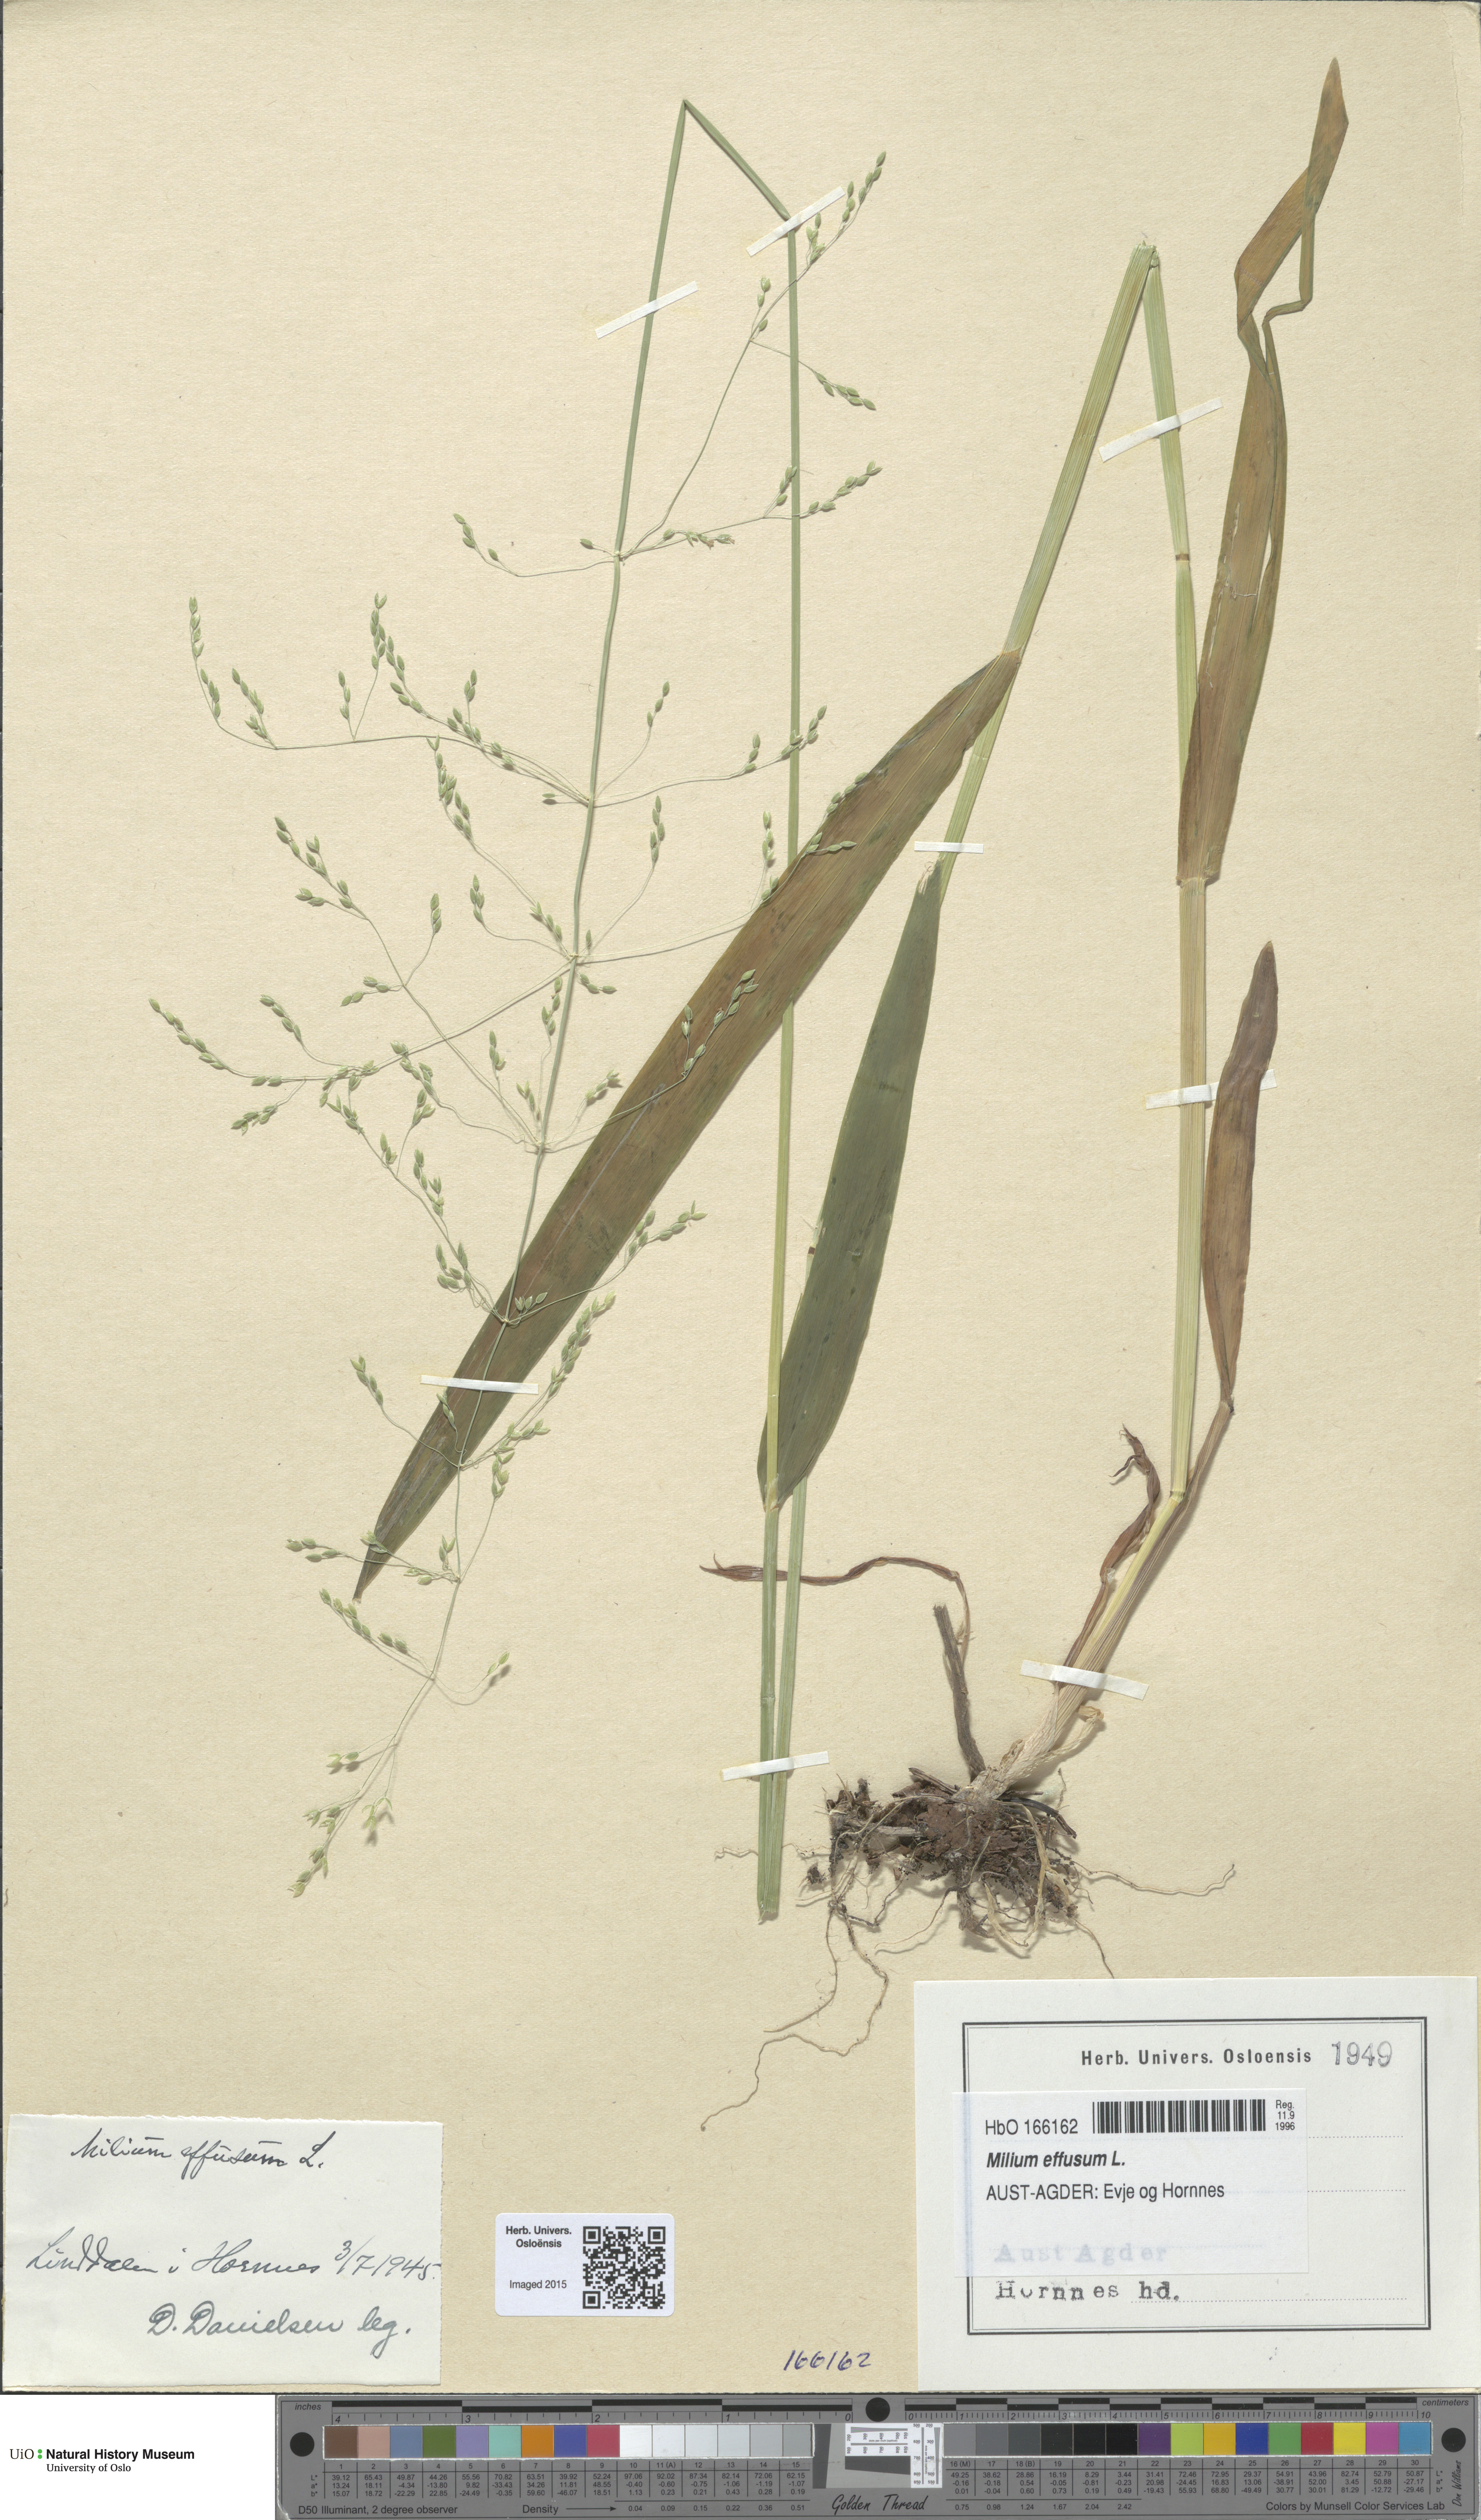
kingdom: Plantae
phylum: Tracheophyta
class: Liliopsida
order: Poales
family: Poaceae
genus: Milium
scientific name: Milium effusum
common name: Wood millet
